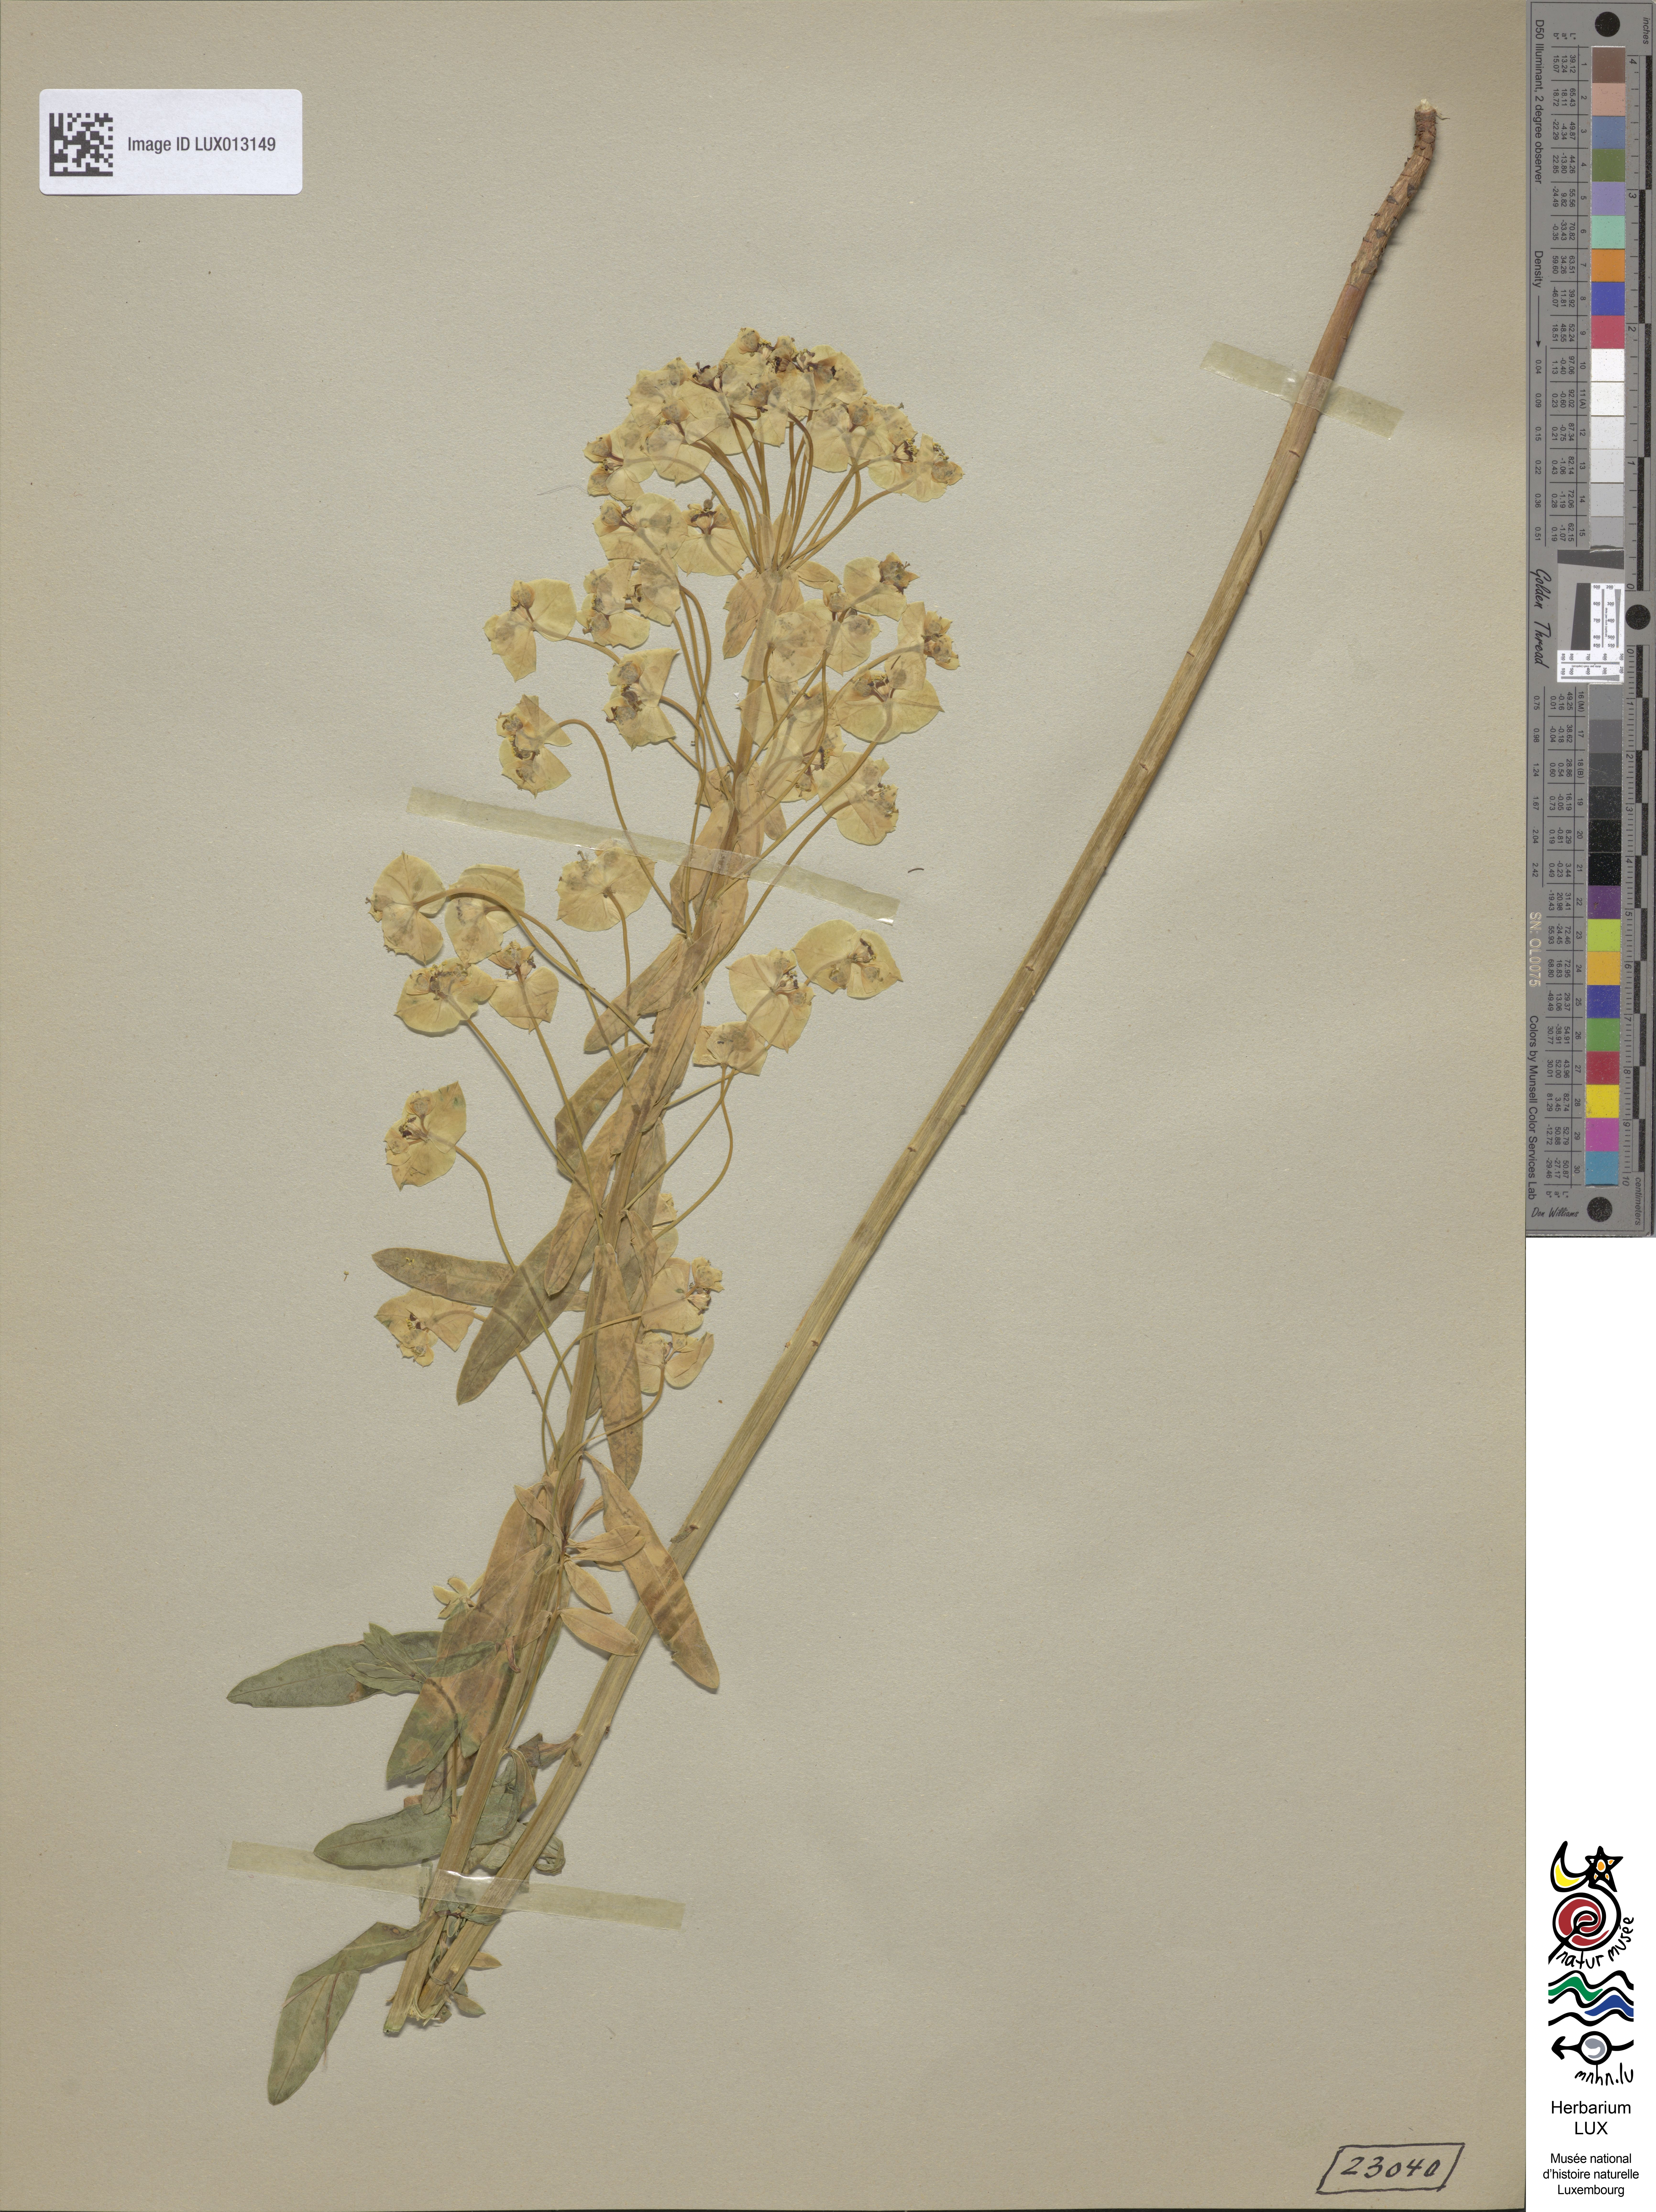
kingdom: Plantae
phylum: Tracheophyta
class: Magnoliopsida
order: Malpighiales
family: Euphorbiaceae
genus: Euphorbia
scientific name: Euphorbia esula
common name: Leafy spurge
